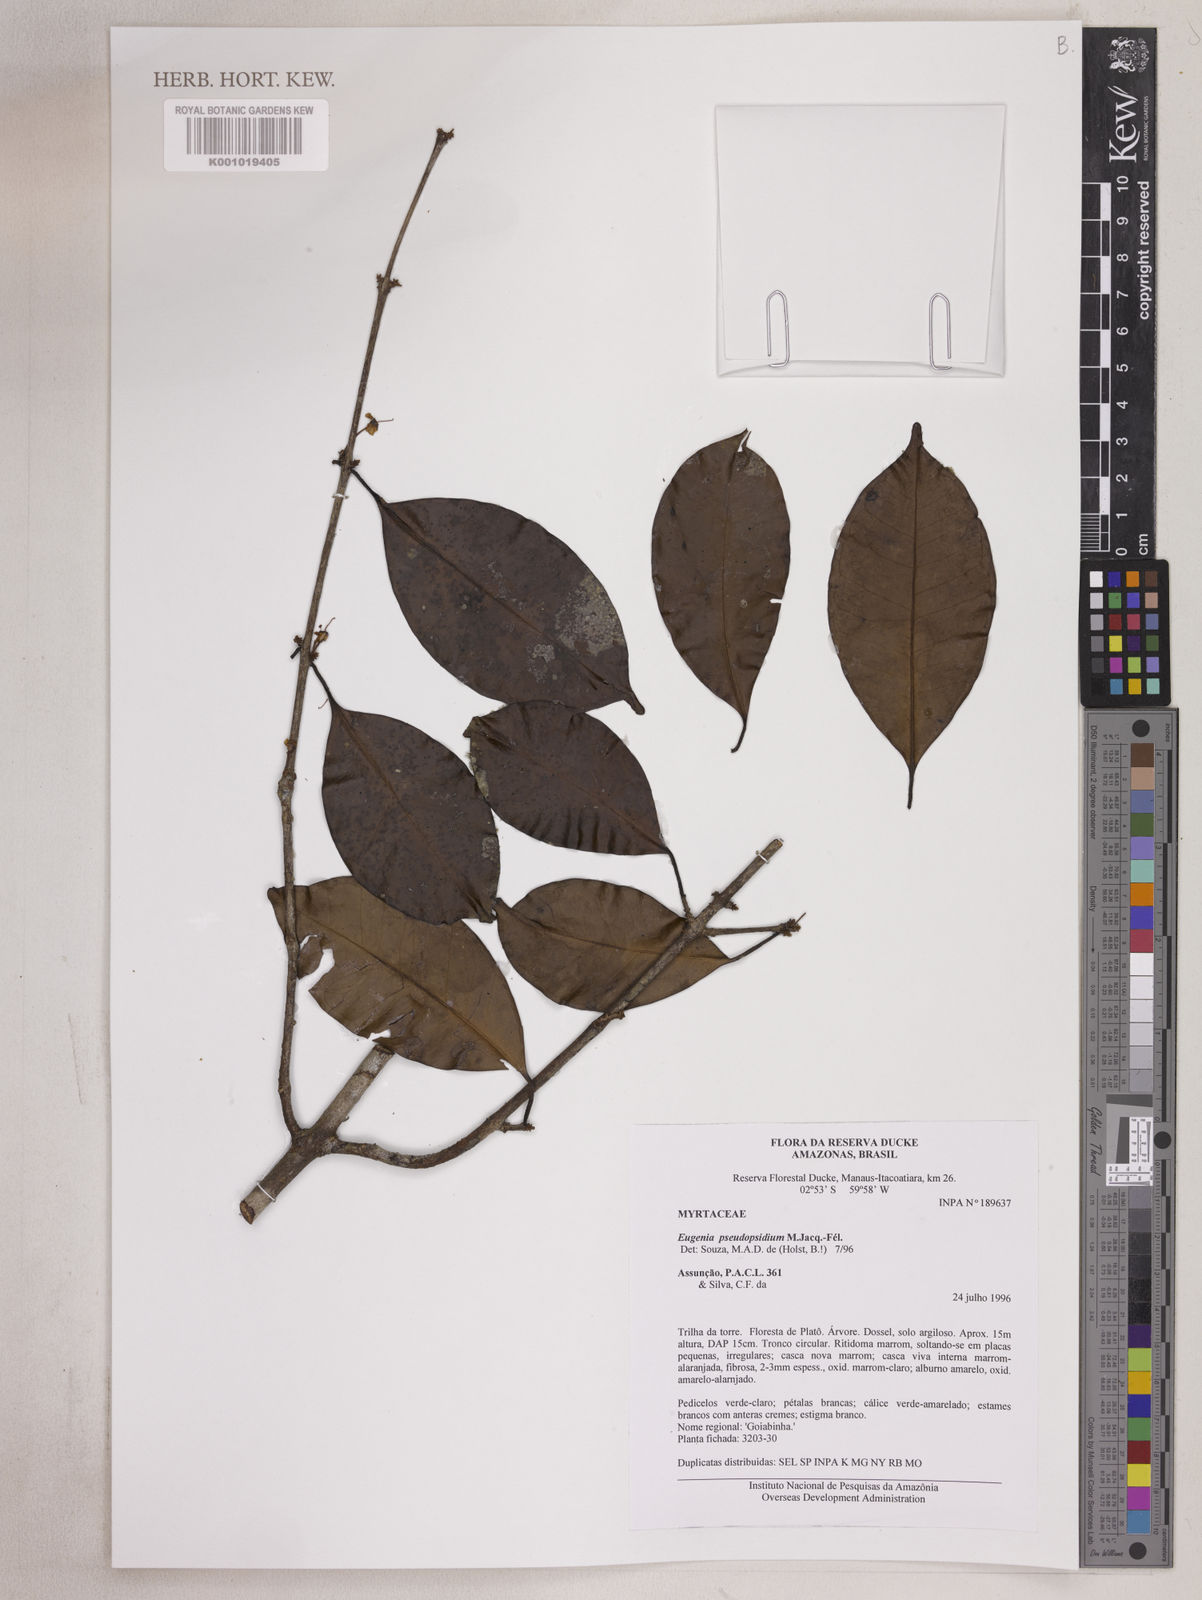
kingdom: Plantae
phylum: Tracheophyta
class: Magnoliopsida
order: Myrtales
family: Myrtaceae
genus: Eugenia
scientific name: Eugenia pseudopsidium
